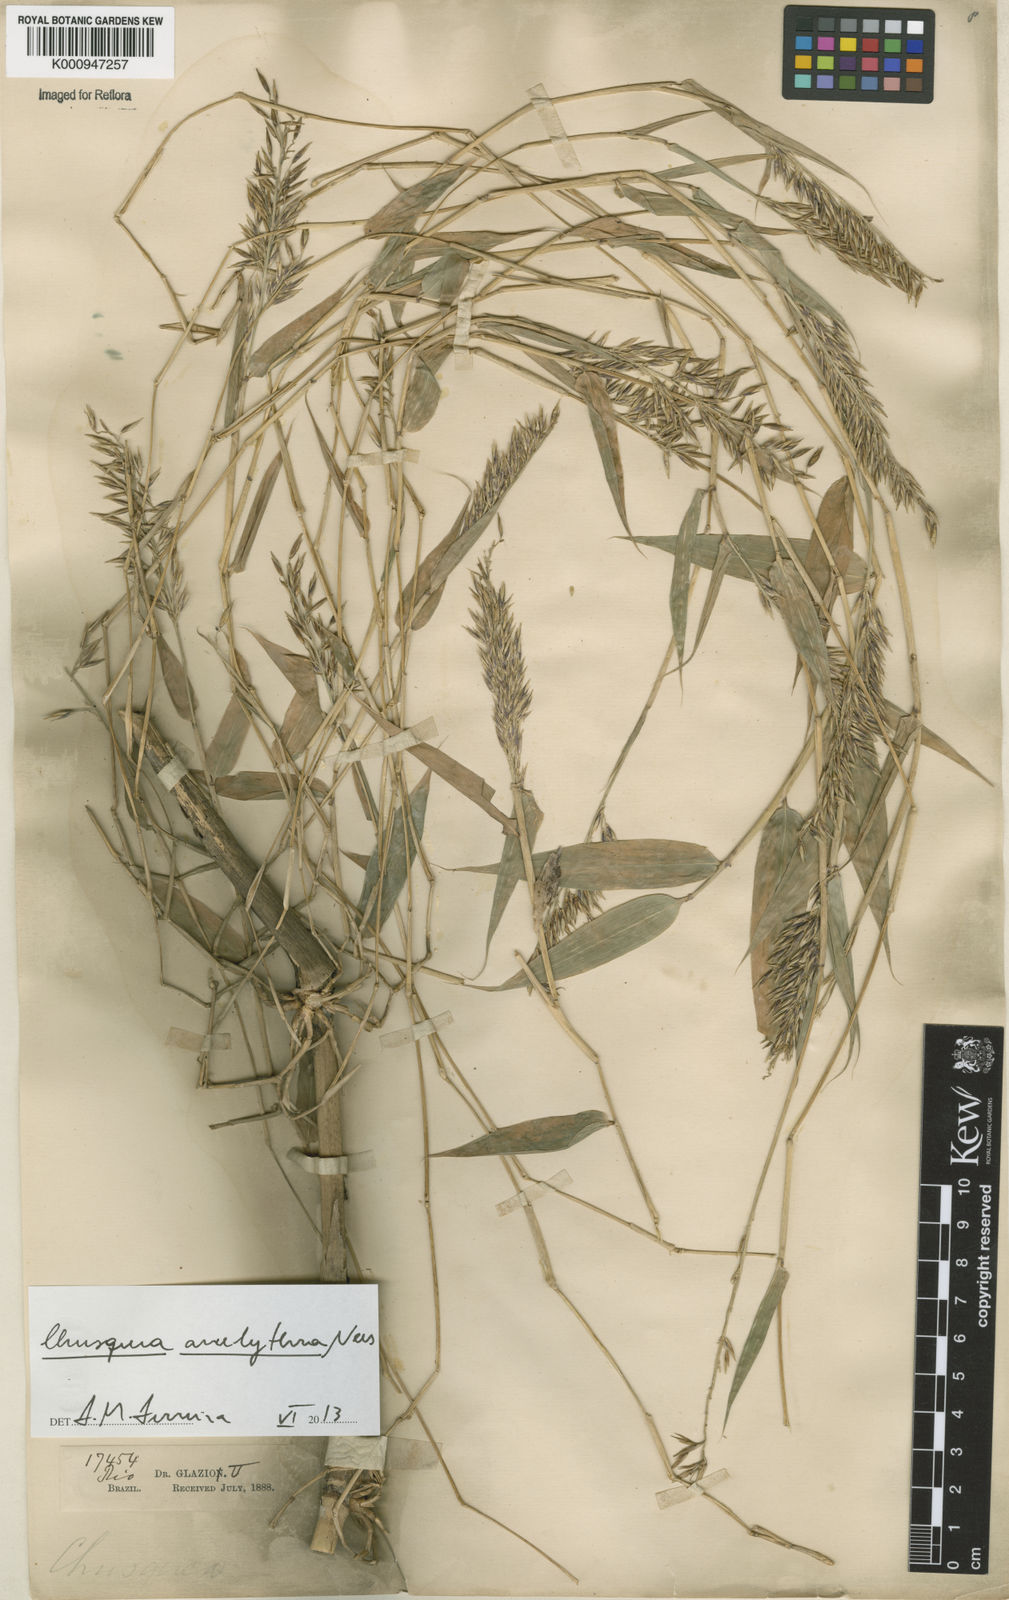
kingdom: Plantae
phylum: Tracheophyta
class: Liliopsida
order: Poales
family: Poaceae
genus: Chusquea
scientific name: Chusquea anelythra
